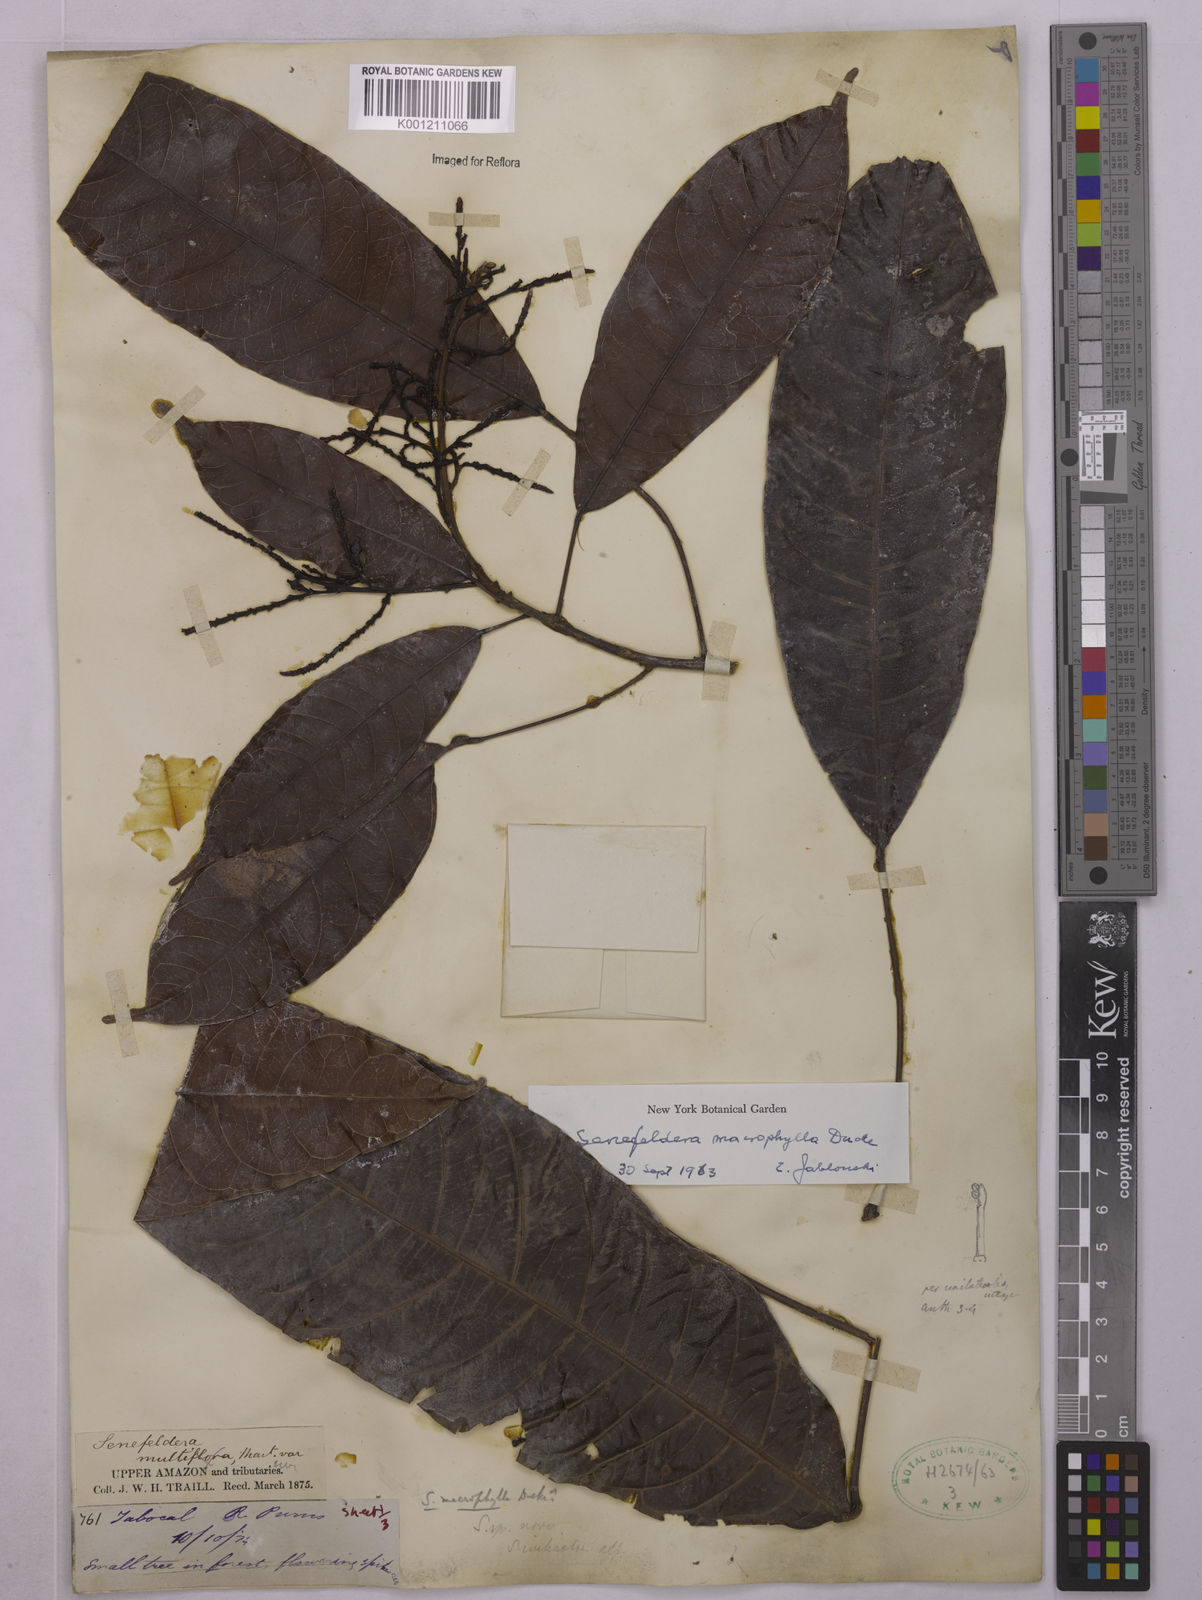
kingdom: Plantae
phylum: Tracheophyta
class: Magnoliopsida
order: Malpighiales
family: Euphorbiaceae
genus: Rhodothyrsus
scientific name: Rhodothyrsus macrophyllus
